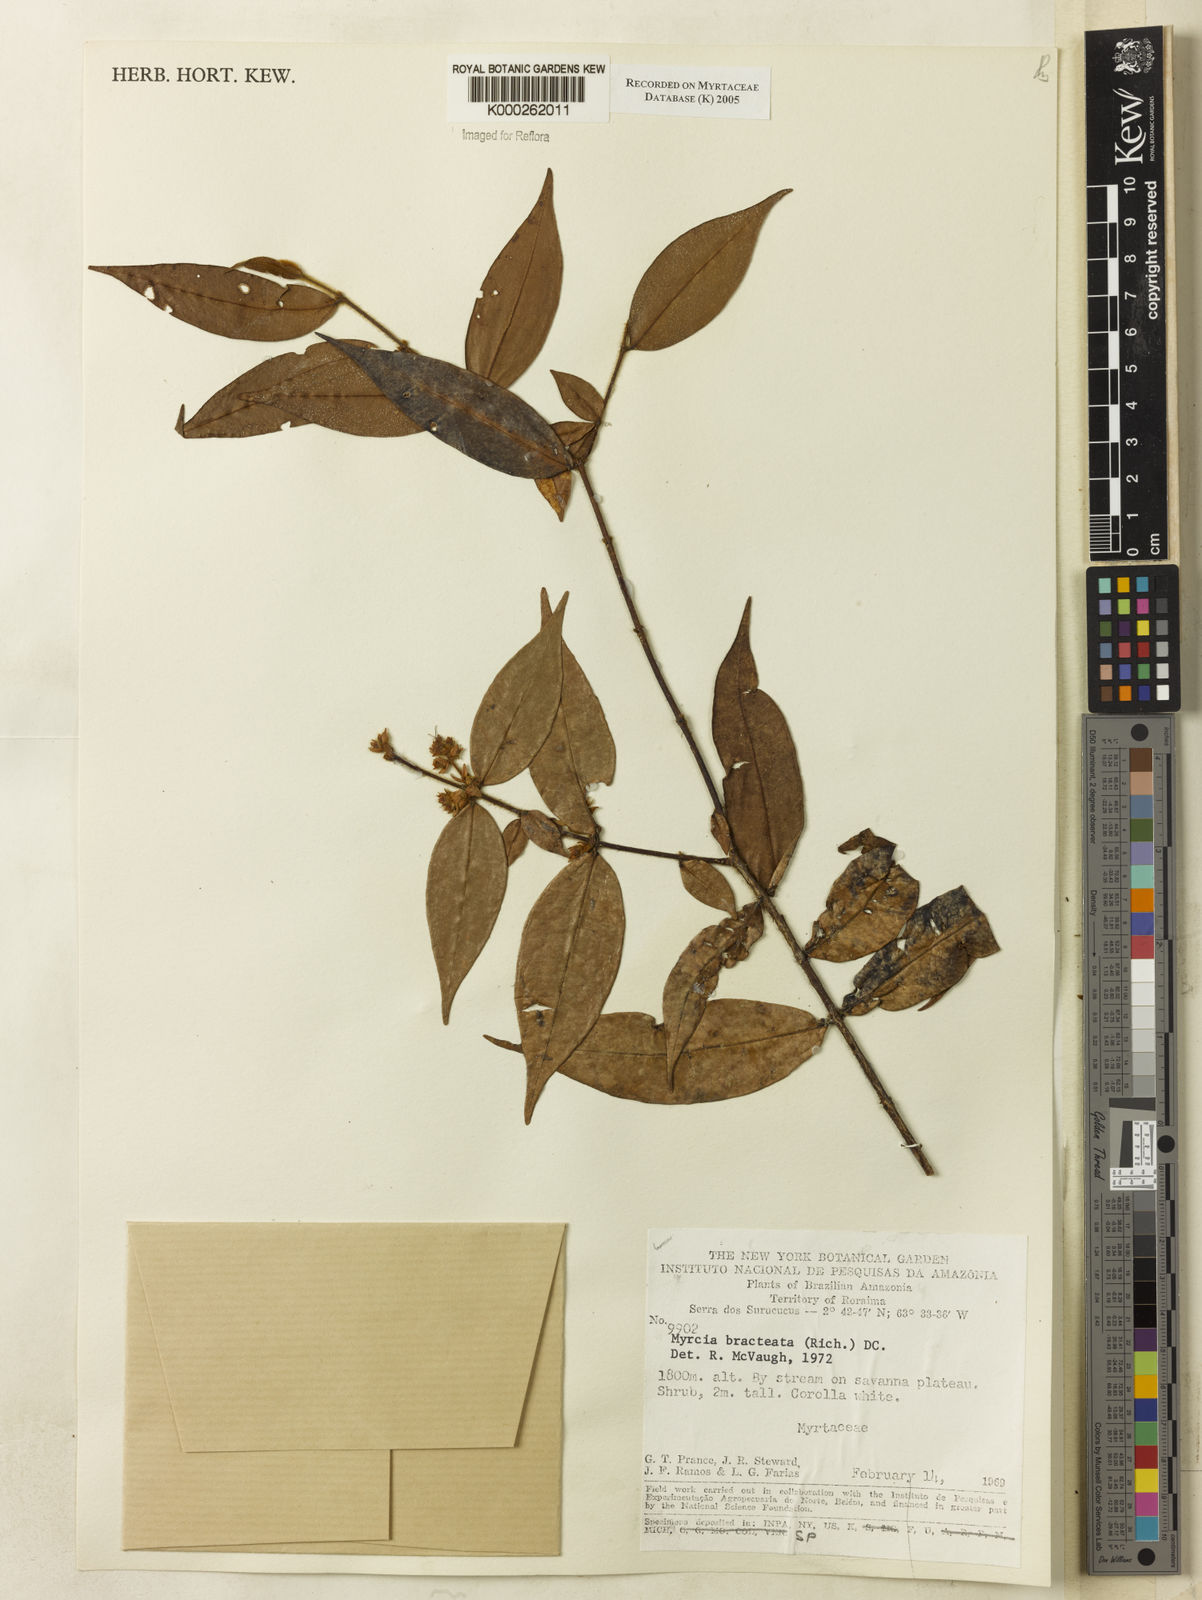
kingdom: Plantae
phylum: Tracheophyta
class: Magnoliopsida
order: Myrtales
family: Myrtaceae
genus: Myrcia
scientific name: Myrcia bracteata
